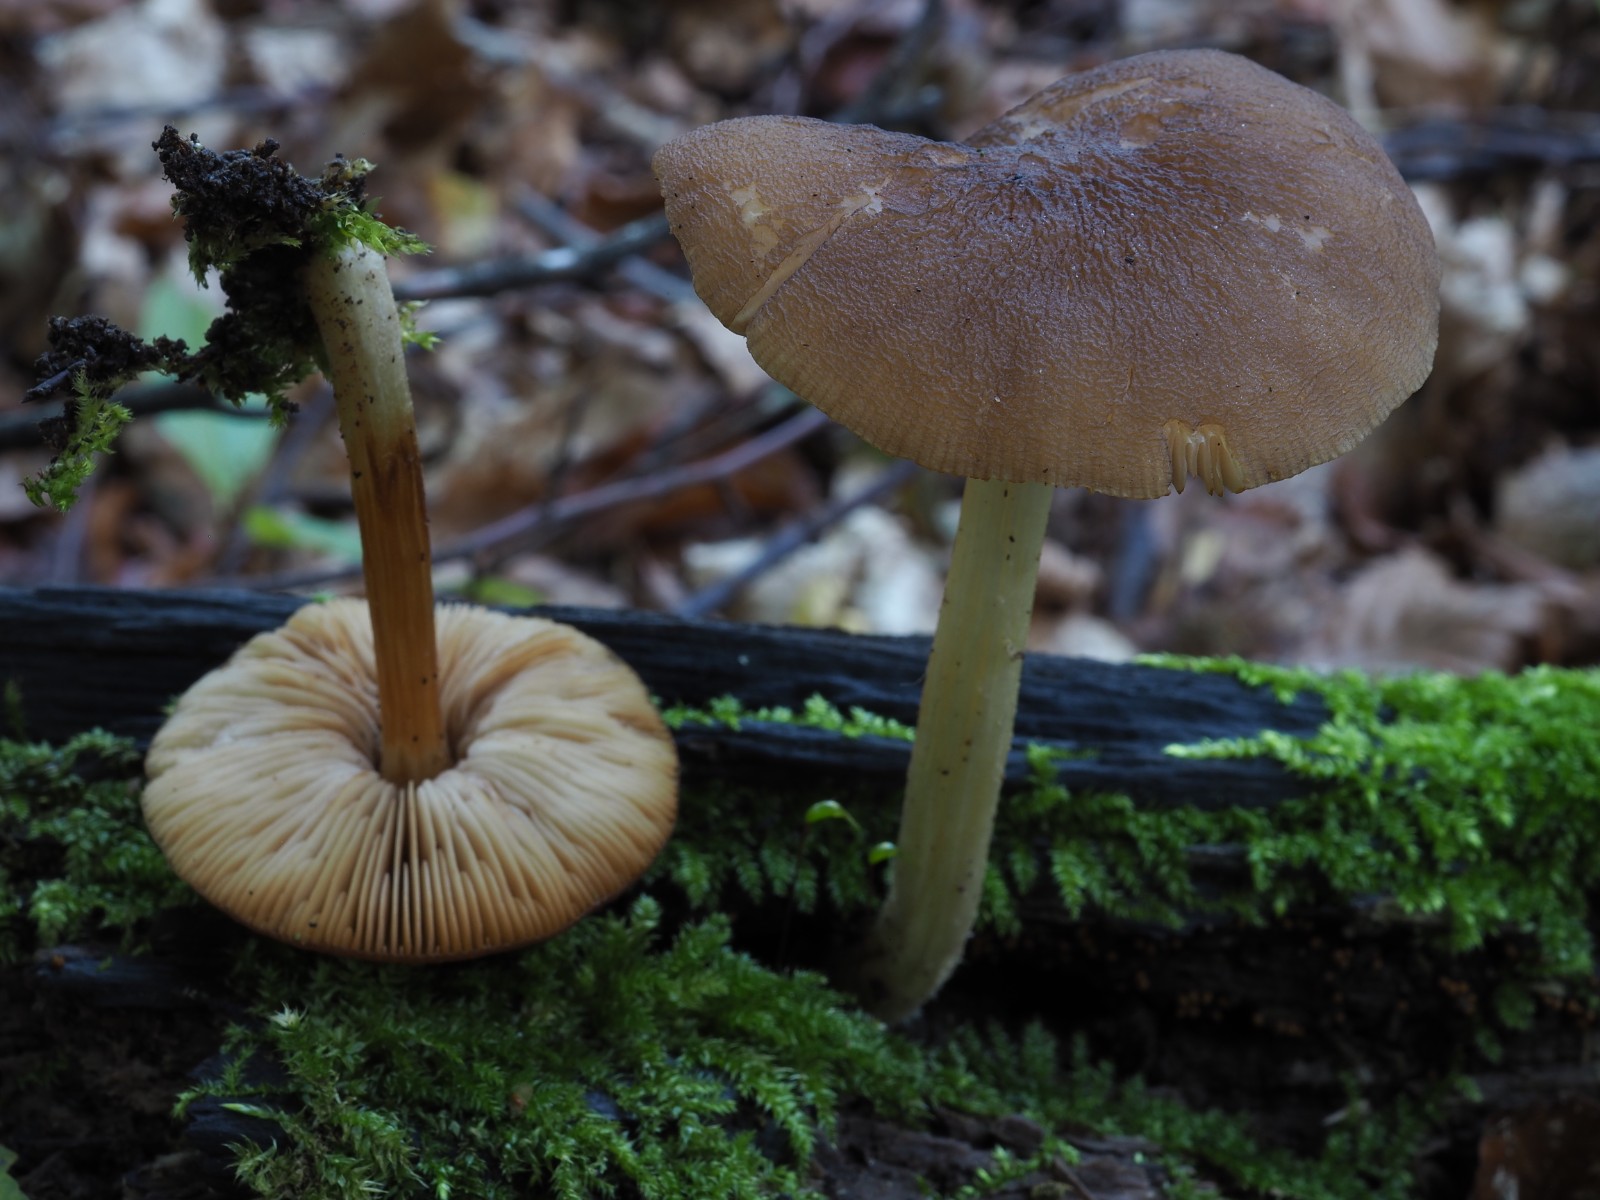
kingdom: Fungi
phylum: Basidiomycota
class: Agaricomycetes
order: Agaricales
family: Pluteaceae
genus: Pluteus
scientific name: Pluteus phlebophorus
